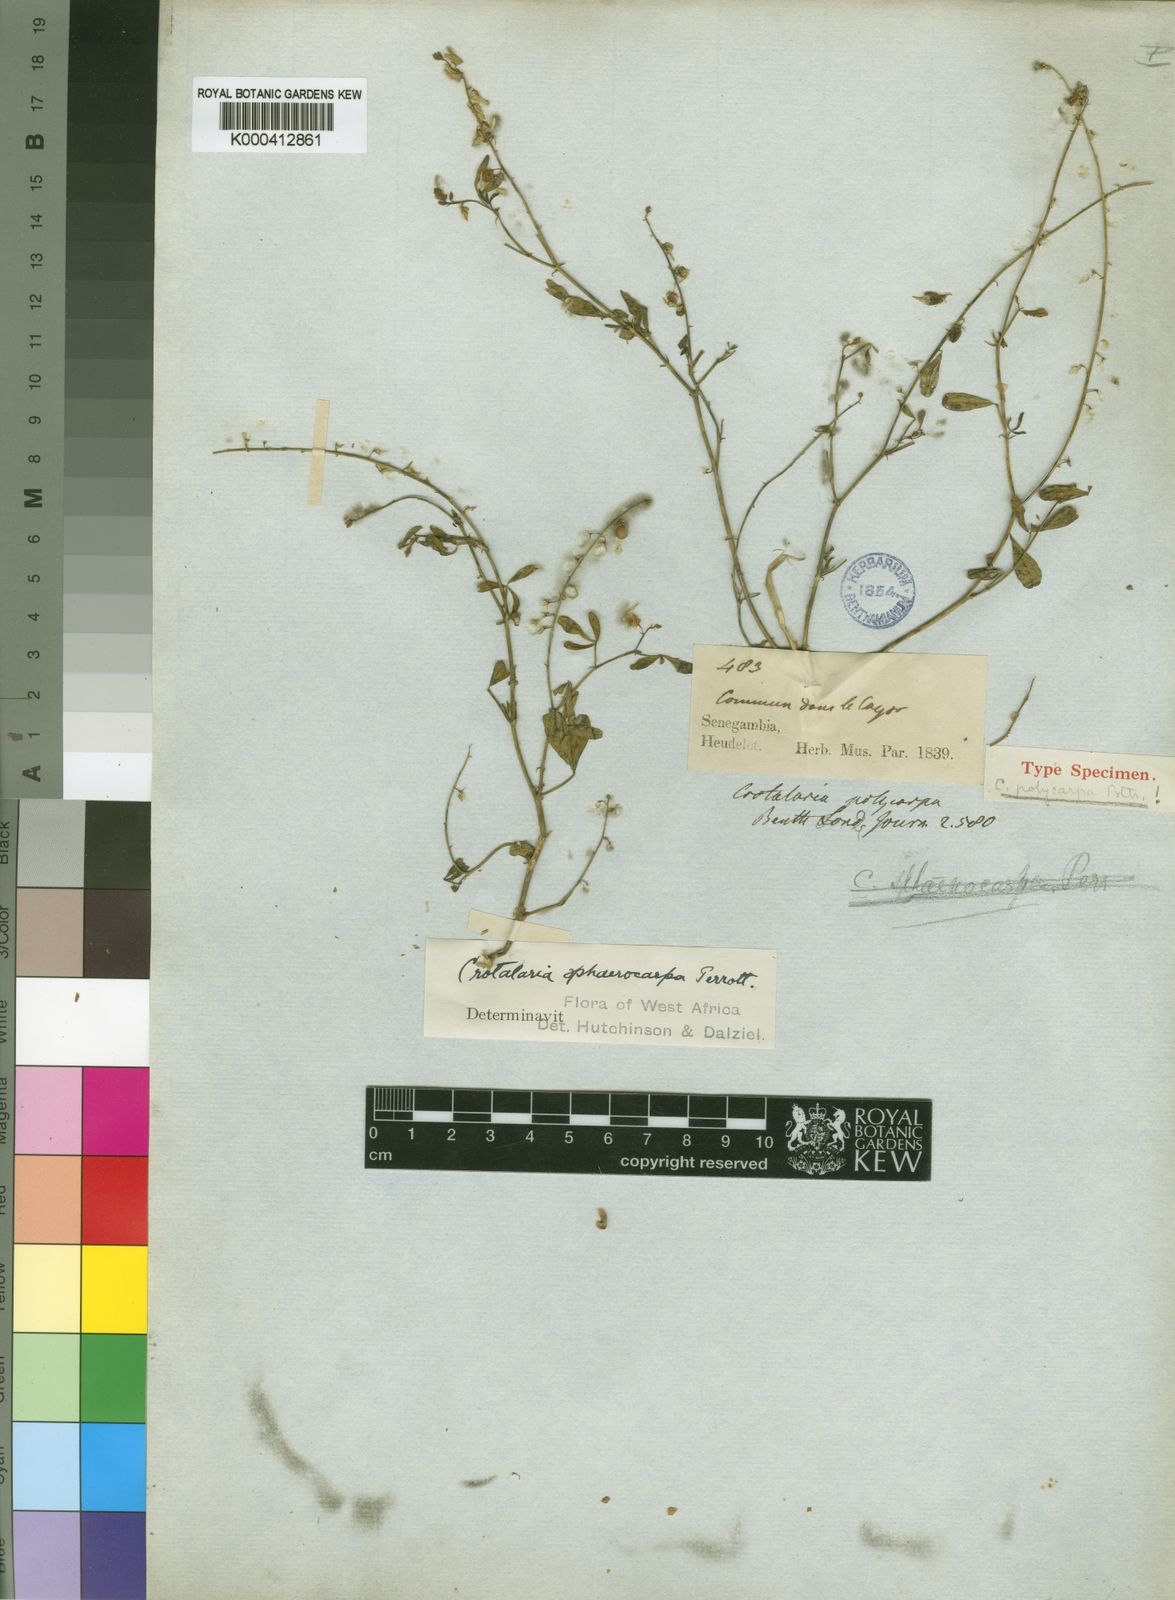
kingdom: Plantae
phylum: Tracheophyta
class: Magnoliopsida
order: Fabales
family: Fabaceae
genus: Crotalaria
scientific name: Crotalaria sphaerocarpa
